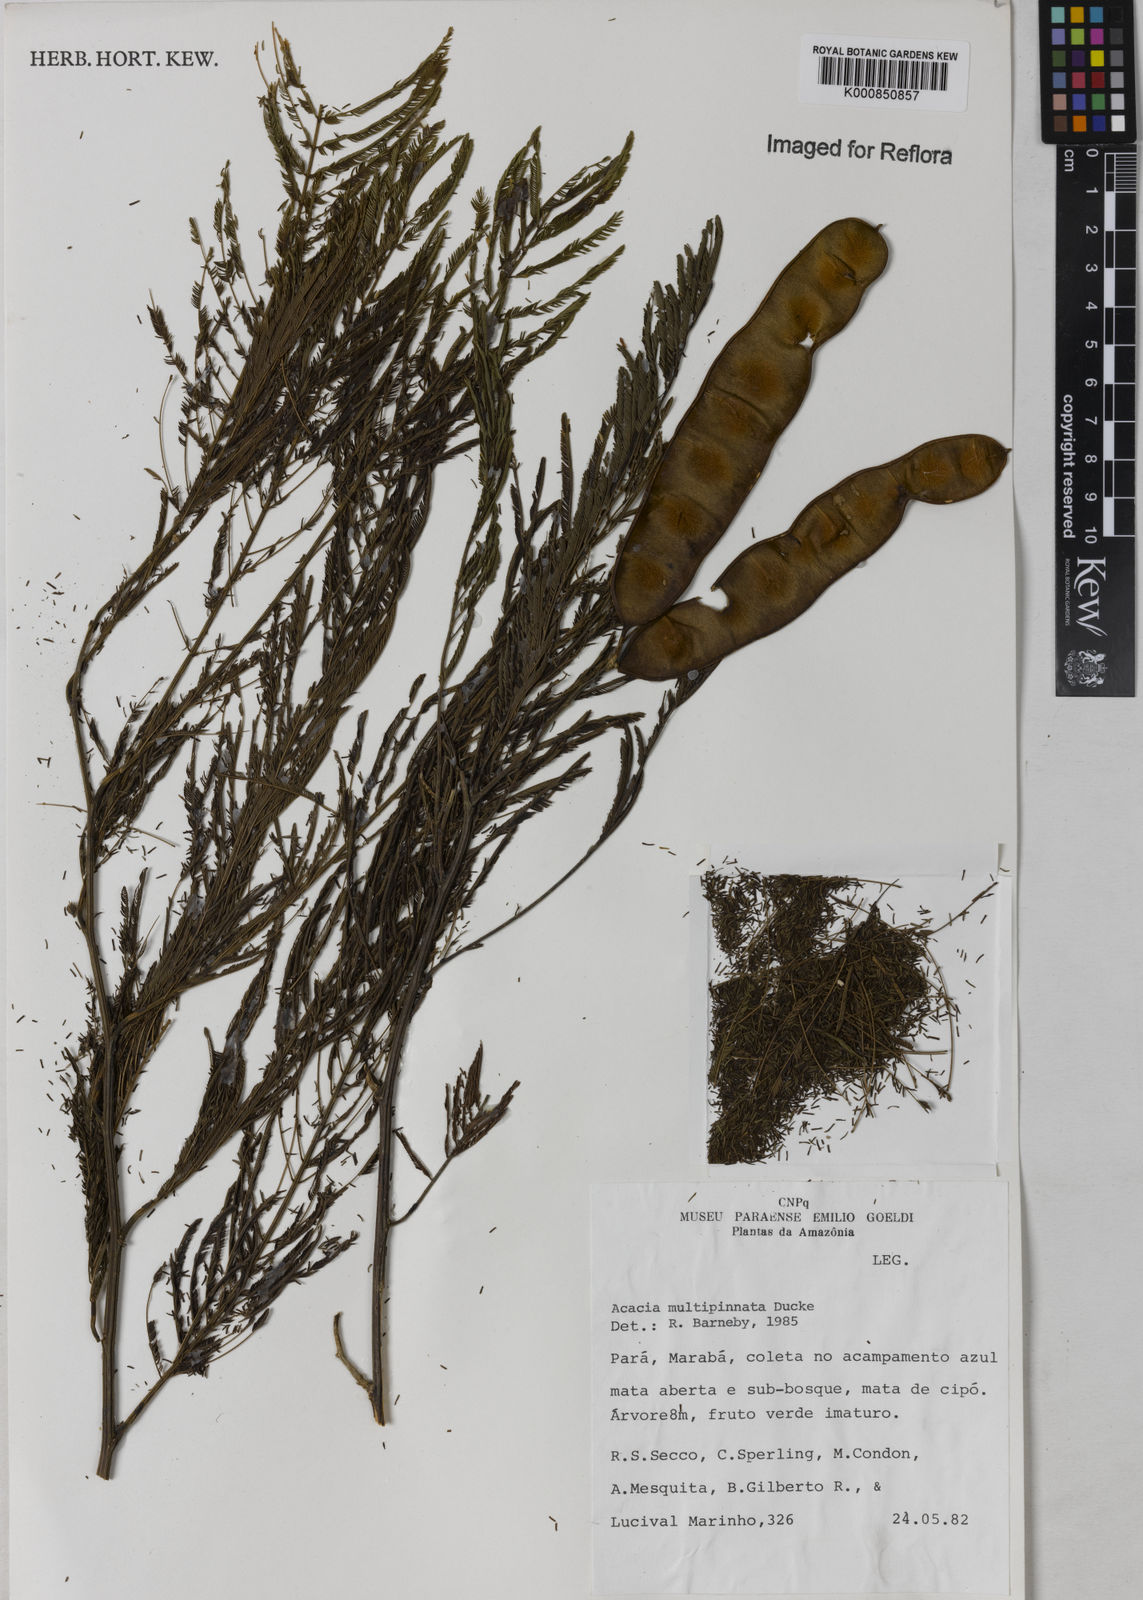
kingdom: Plantae
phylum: Tracheophyta
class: Magnoliopsida
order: Fabales
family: Fabaceae
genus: Senegalia
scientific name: Senegalia paniculata
